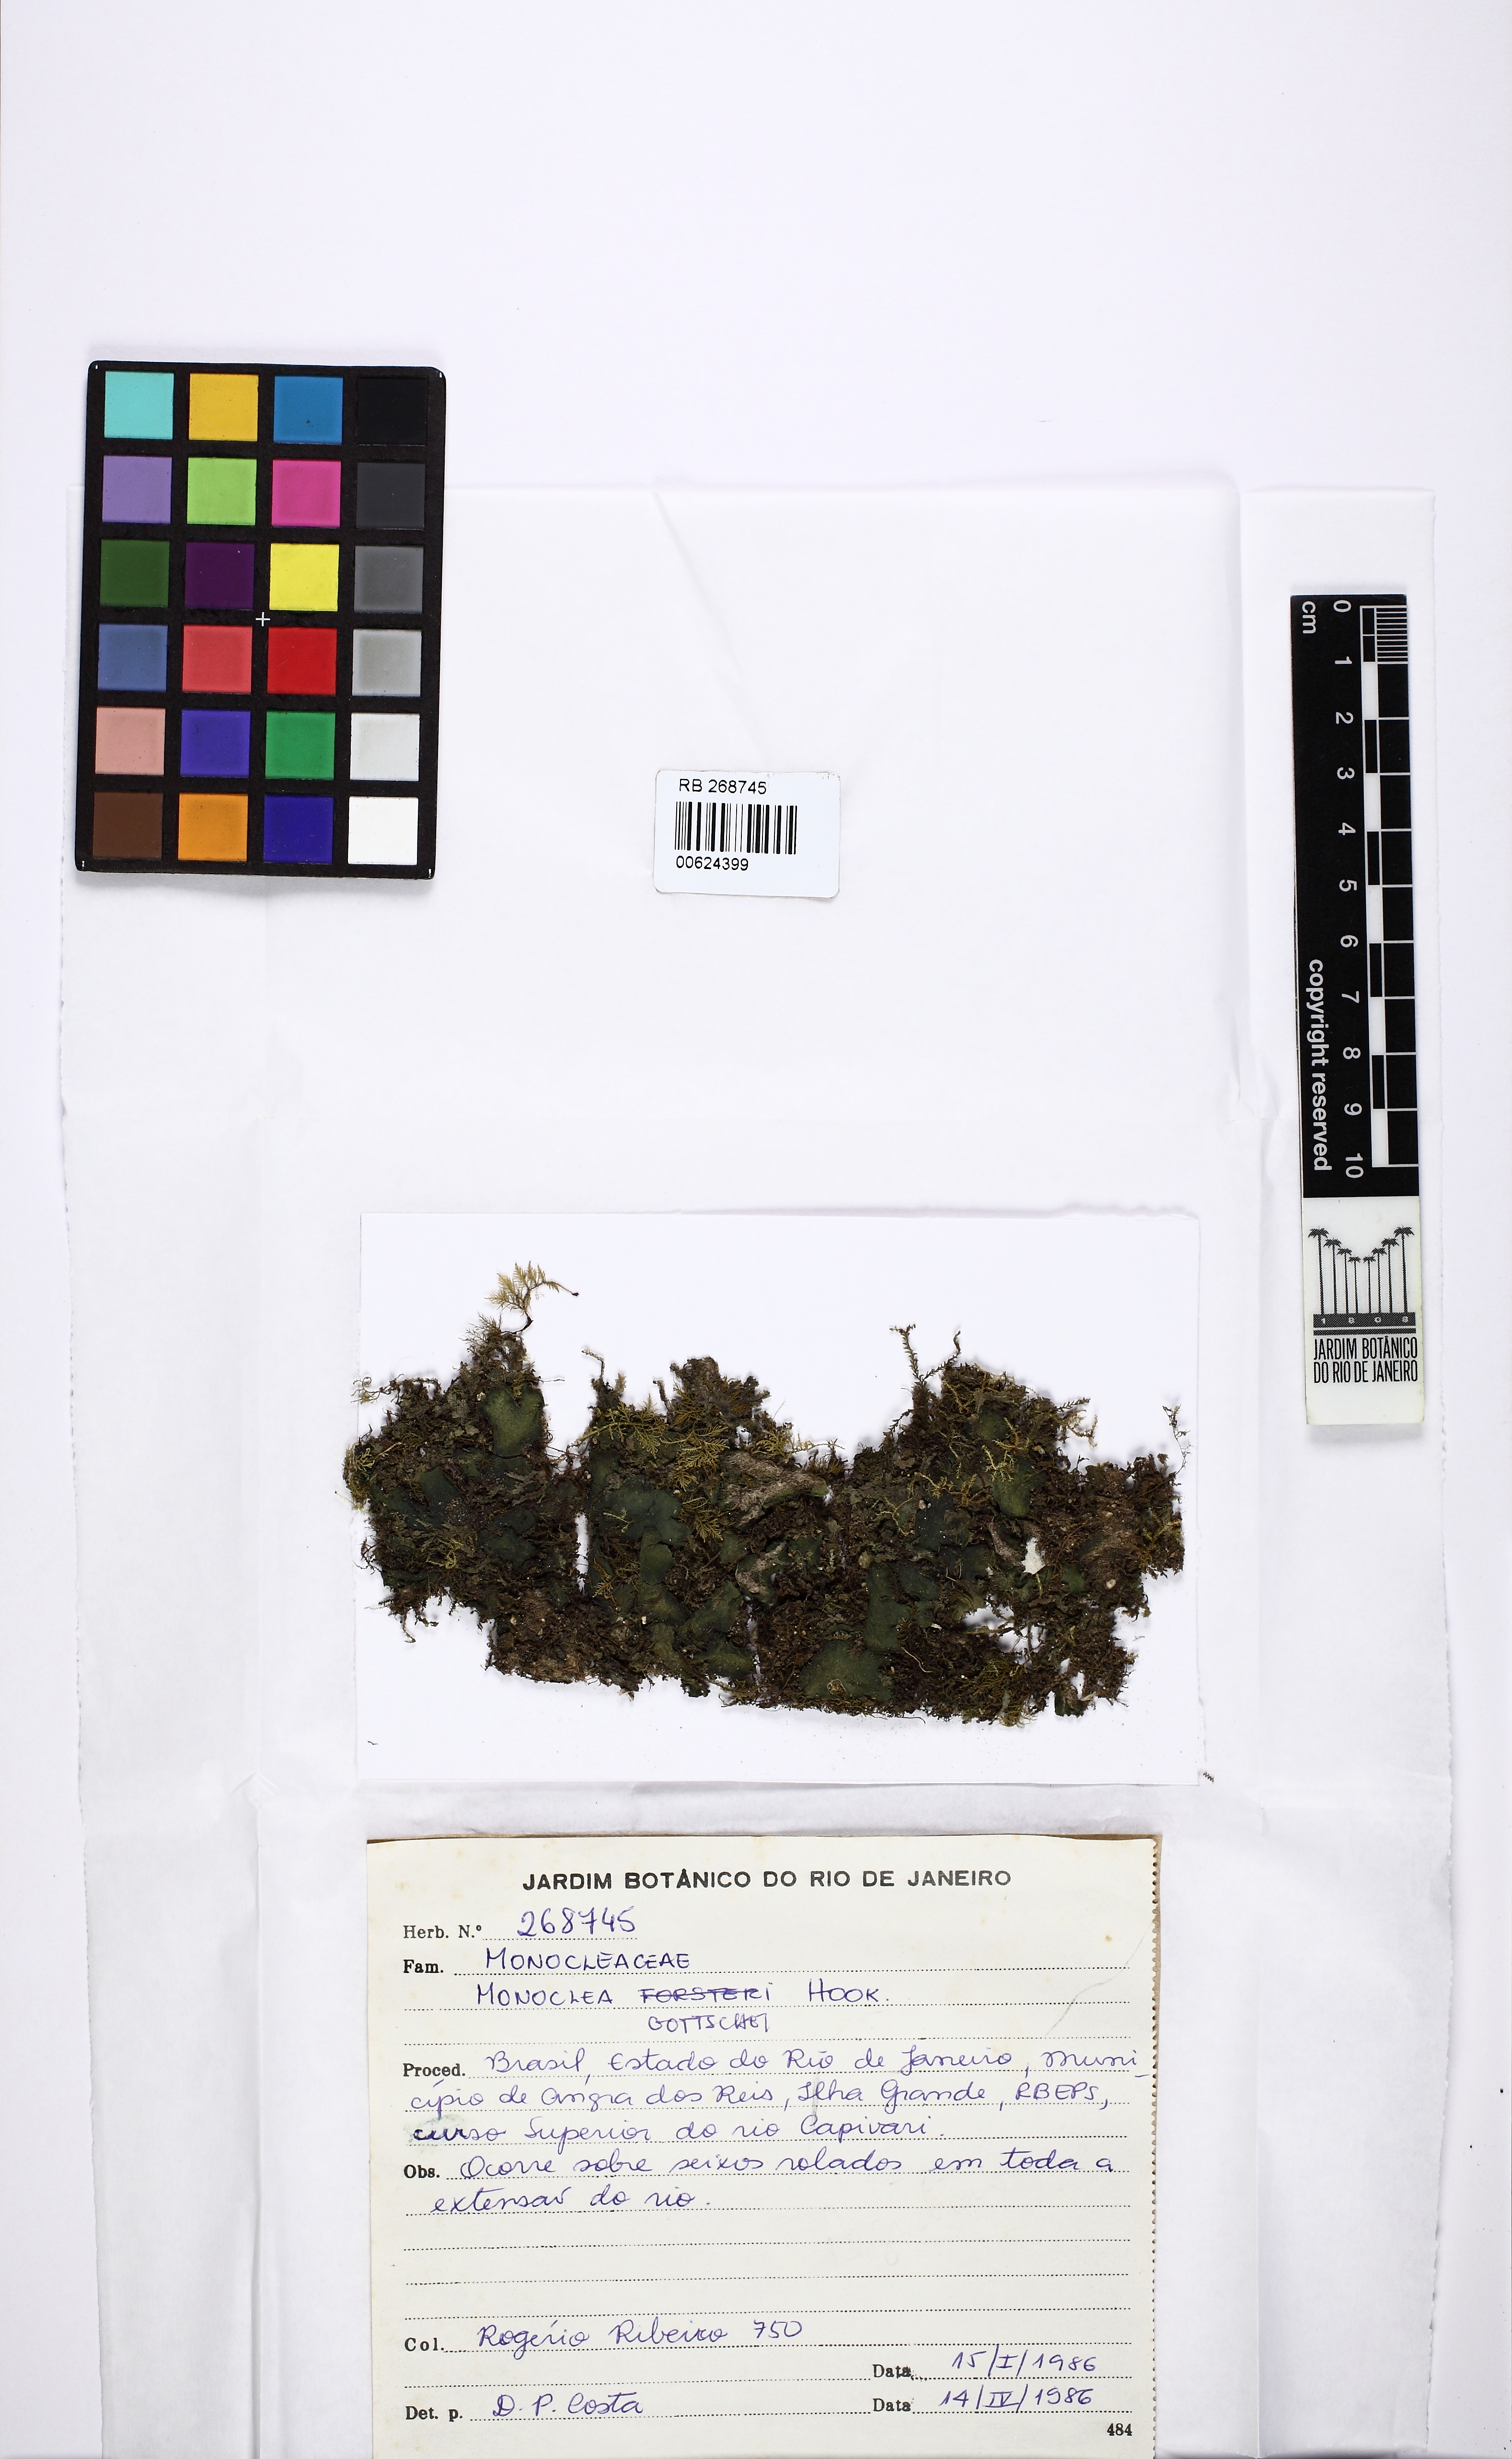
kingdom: Plantae
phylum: Marchantiophyta
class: Marchantiopsida
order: Marchantiales
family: Monocleaceae
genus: Monoclea
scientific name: Monoclea gottschei
